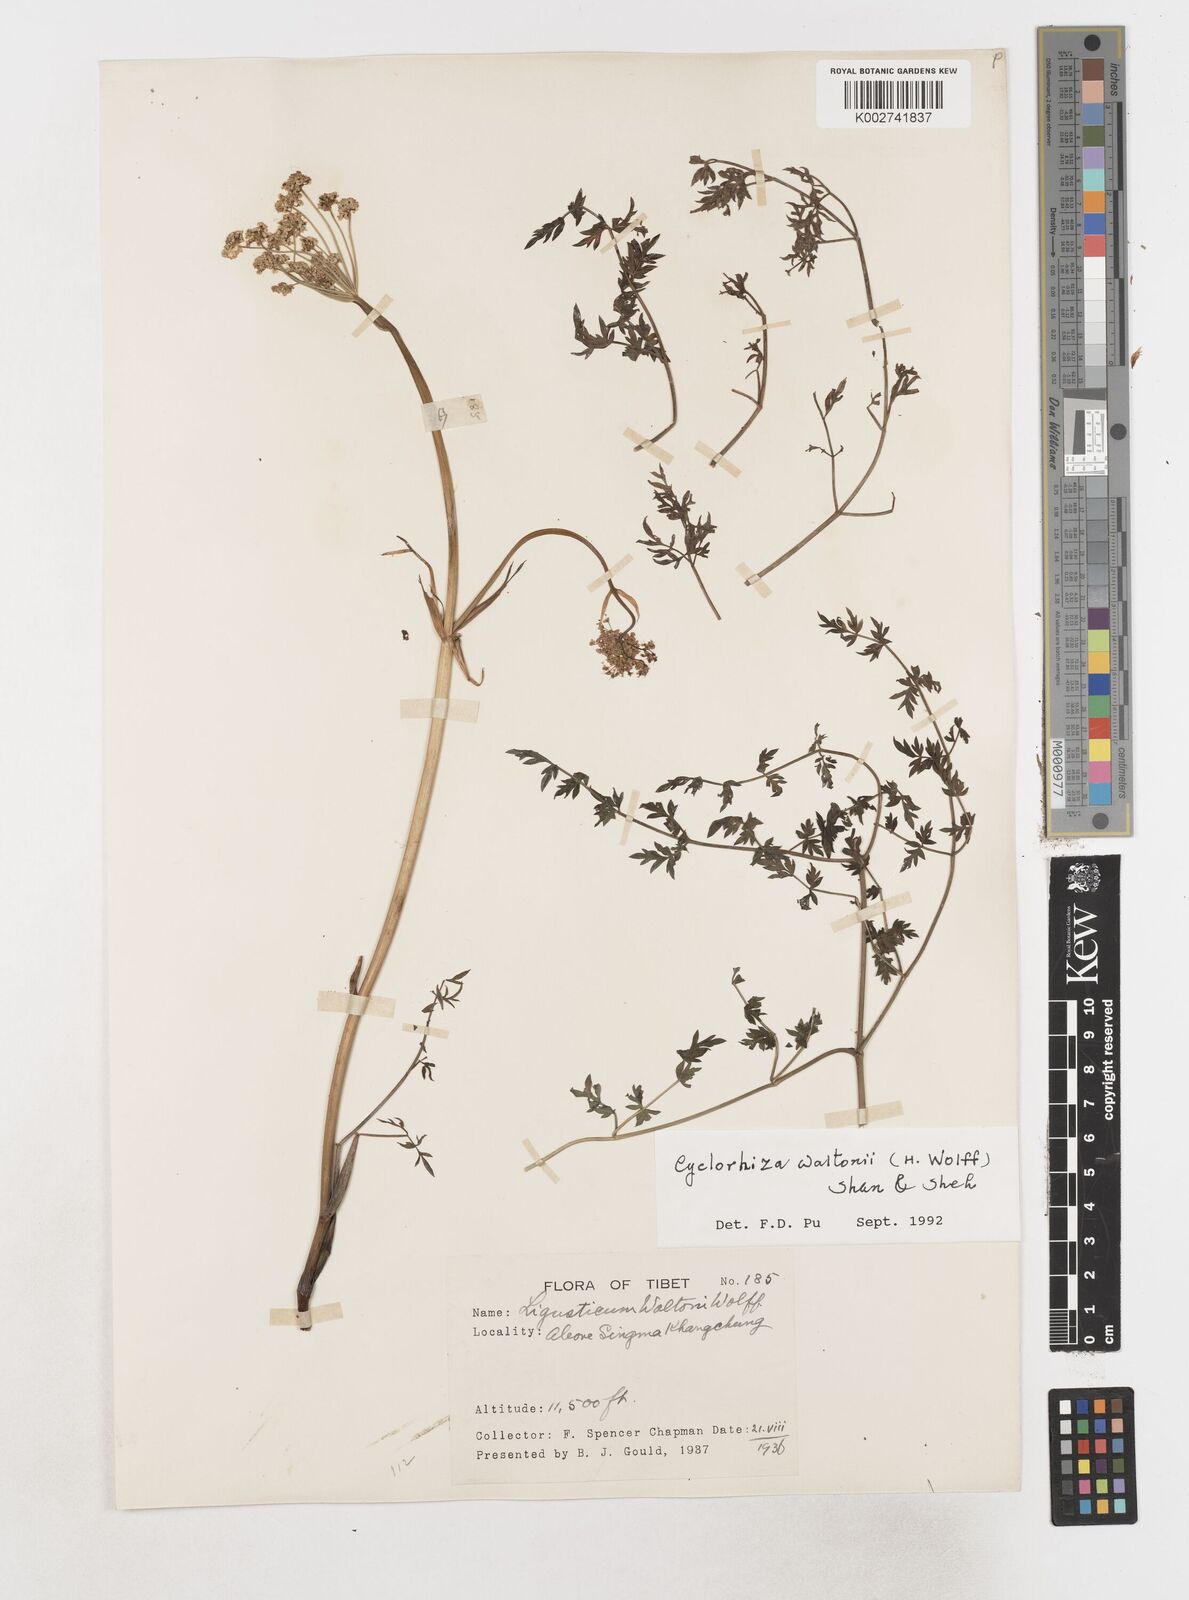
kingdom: Plantae
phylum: Tracheophyta
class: Magnoliopsida
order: Apiales
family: Apiaceae
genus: Cyclorhiza
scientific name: Cyclorhiza waltonii
